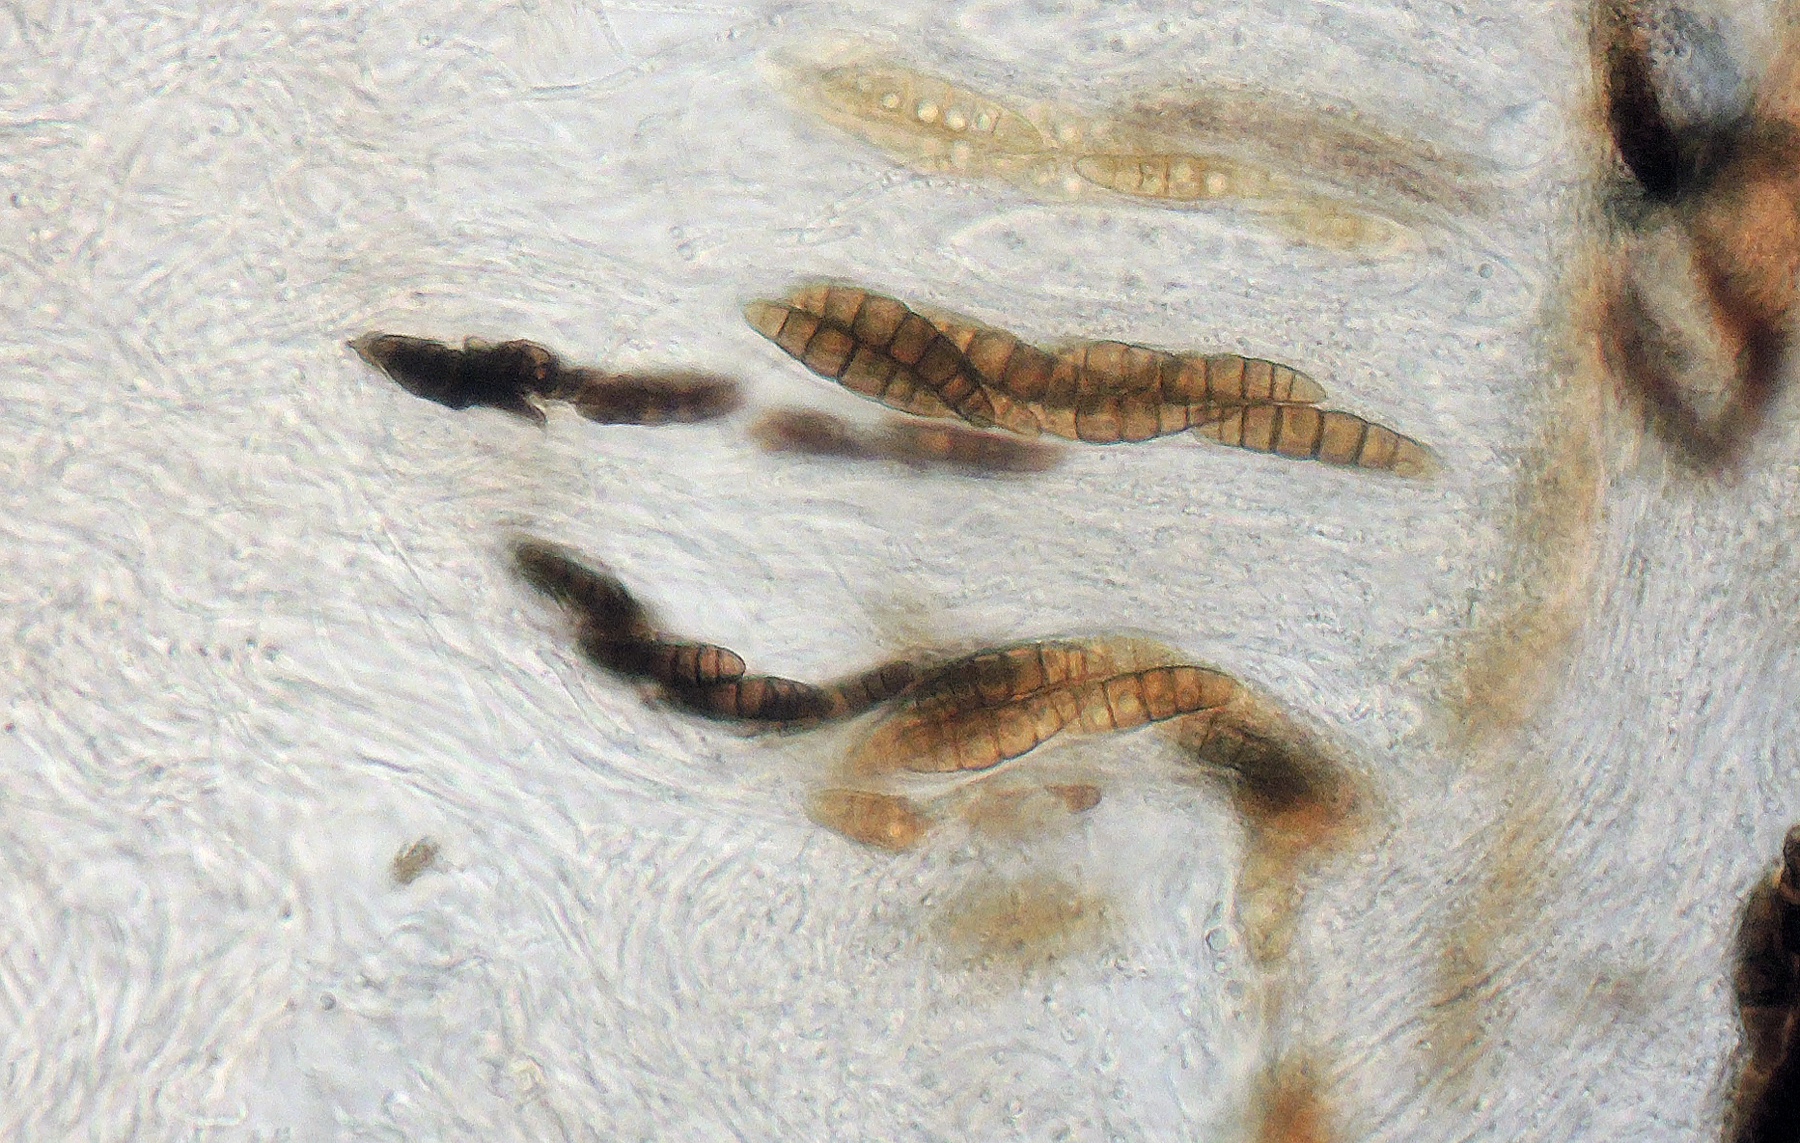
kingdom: Fungi
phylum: Ascomycota
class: Dothideomycetes
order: Pleosporales
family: Thyridariaceae
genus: Thyridaria
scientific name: Thyridaria macrostomoides
